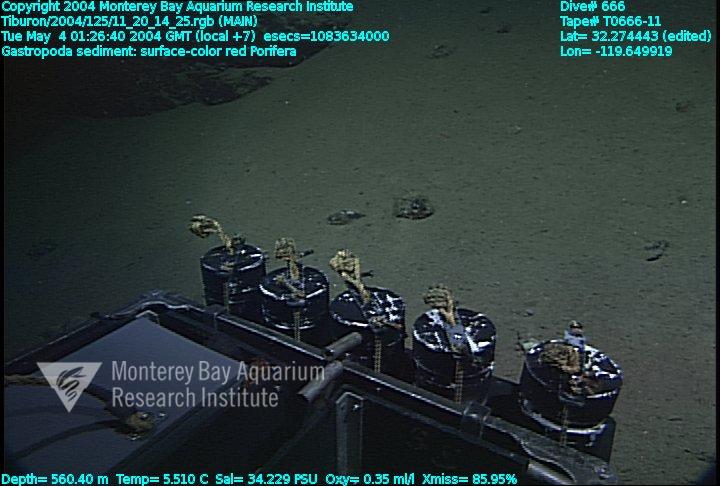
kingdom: Animalia
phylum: Porifera
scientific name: Porifera
